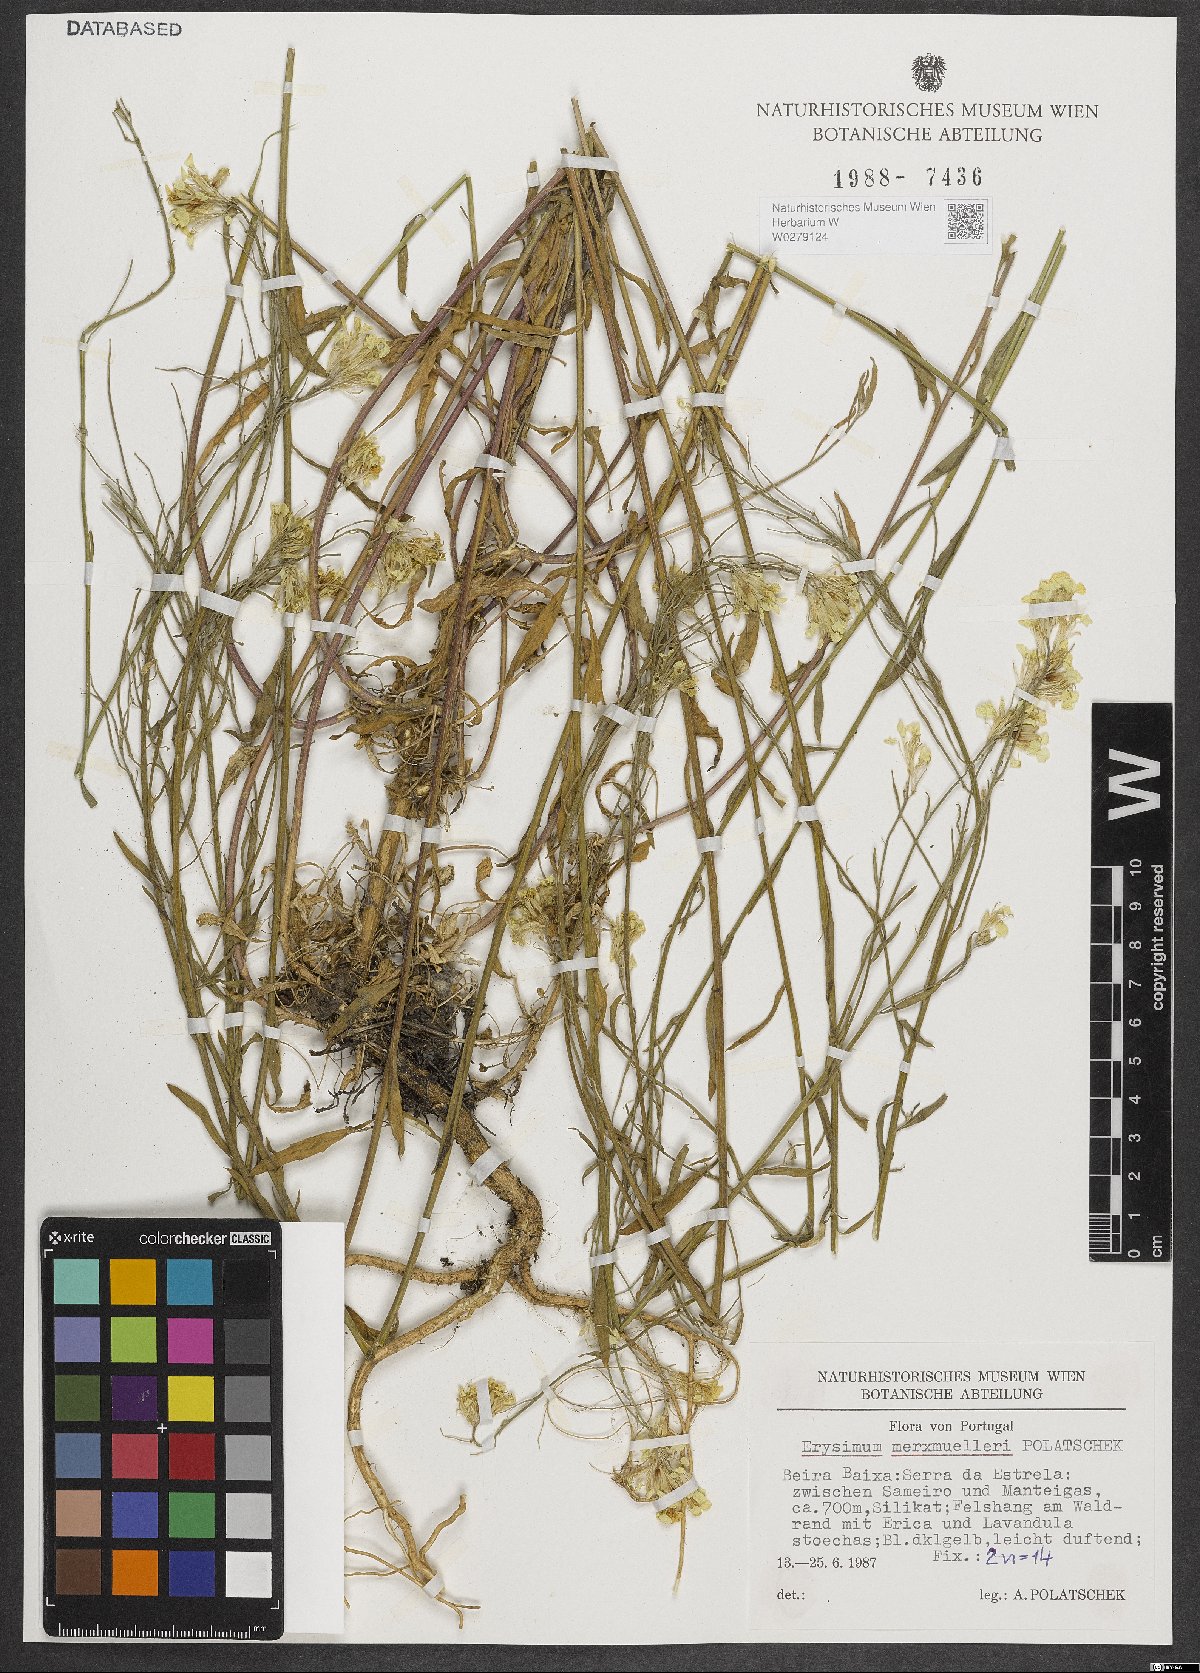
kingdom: Plantae
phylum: Tracheophyta
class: Magnoliopsida
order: Brassicales
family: Brassicaceae
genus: Erysimum
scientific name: Erysimum nevadense
